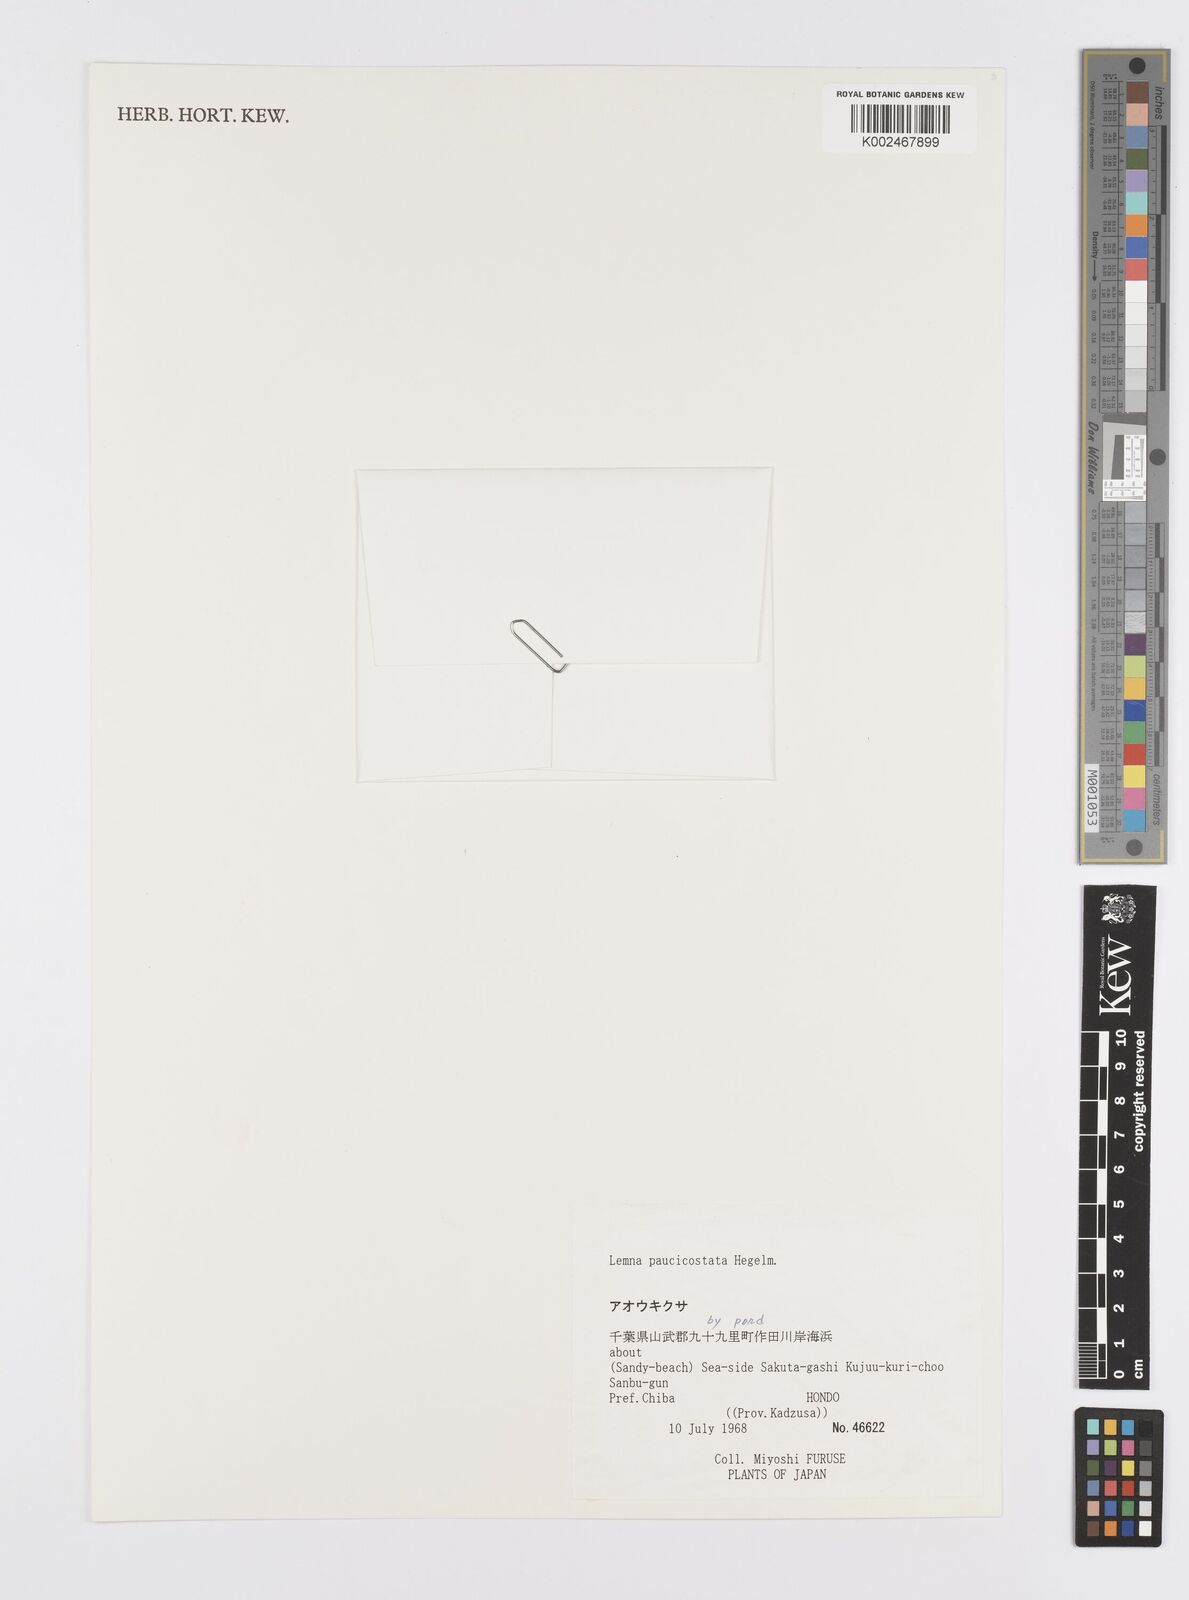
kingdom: Plantae
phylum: Tracheophyta
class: Liliopsida
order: Alismatales
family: Araceae
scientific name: Araceae
